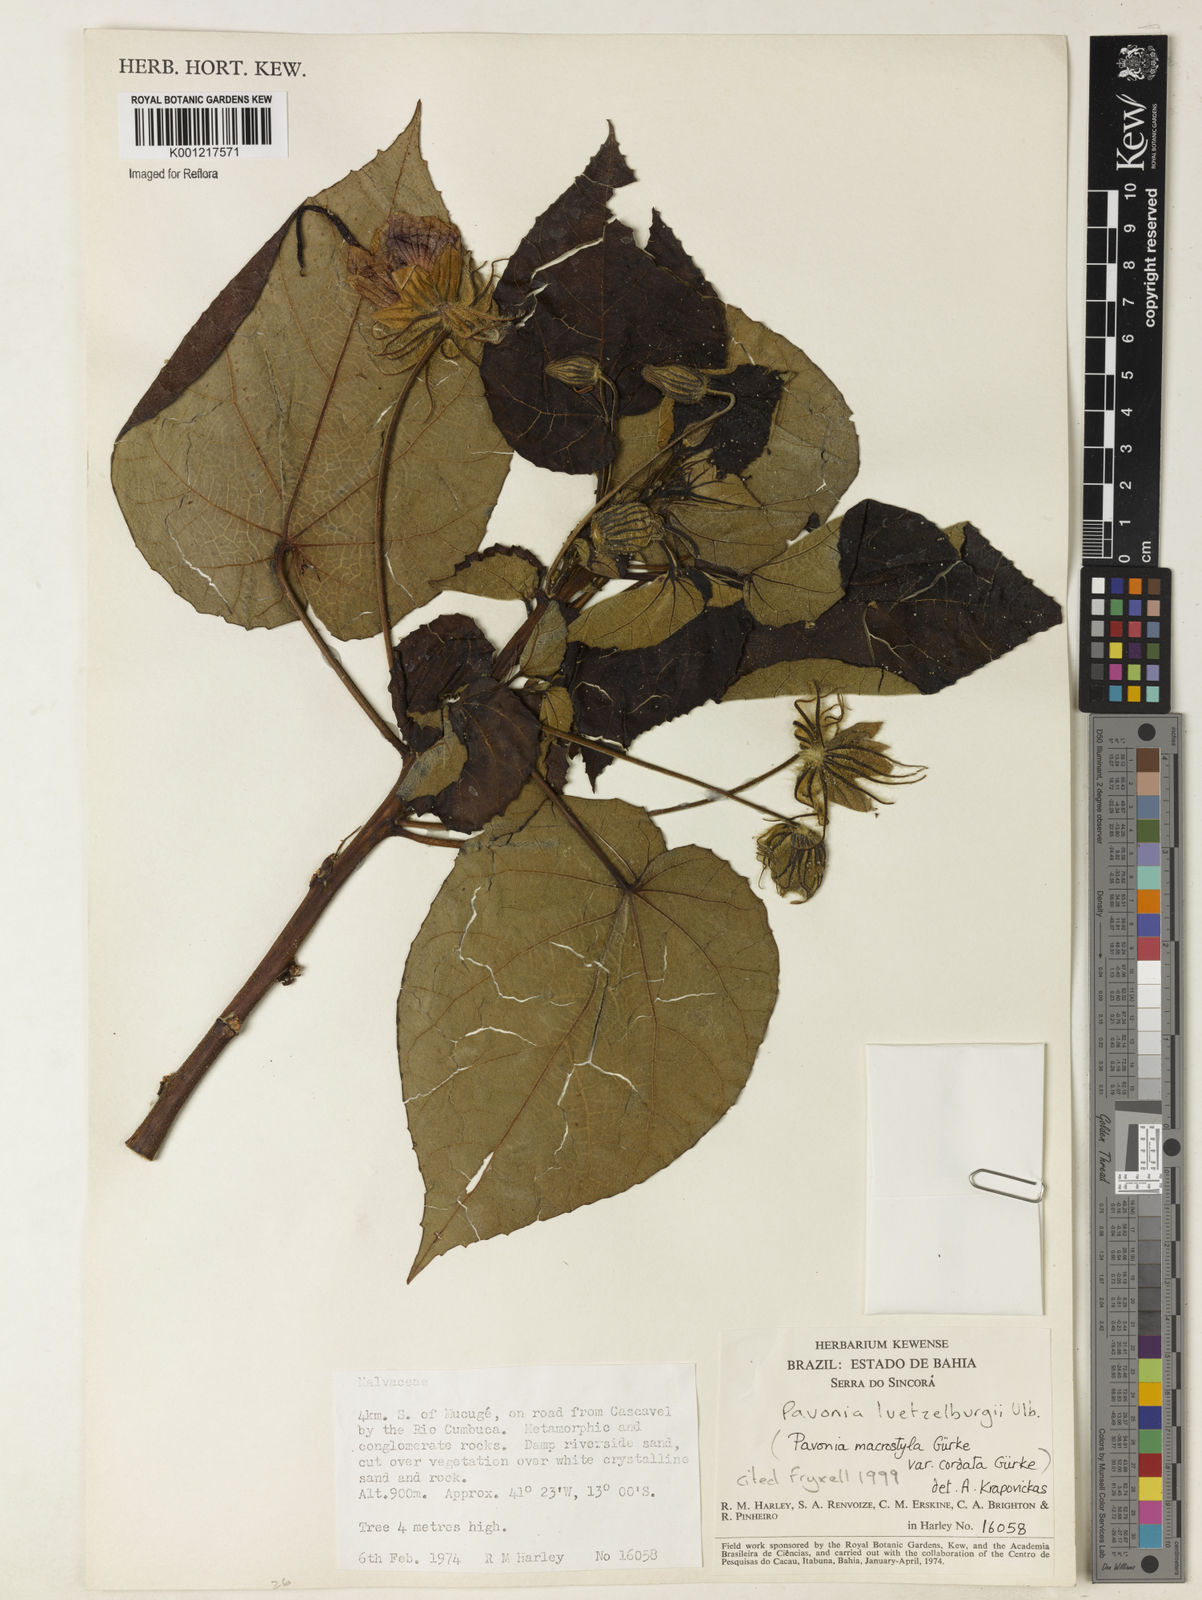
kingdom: Plantae
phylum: Tracheophyta
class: Magnoliopsida
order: Malvales
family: Malvaceae
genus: Pavonia
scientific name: Pavonia luetzelburgii
